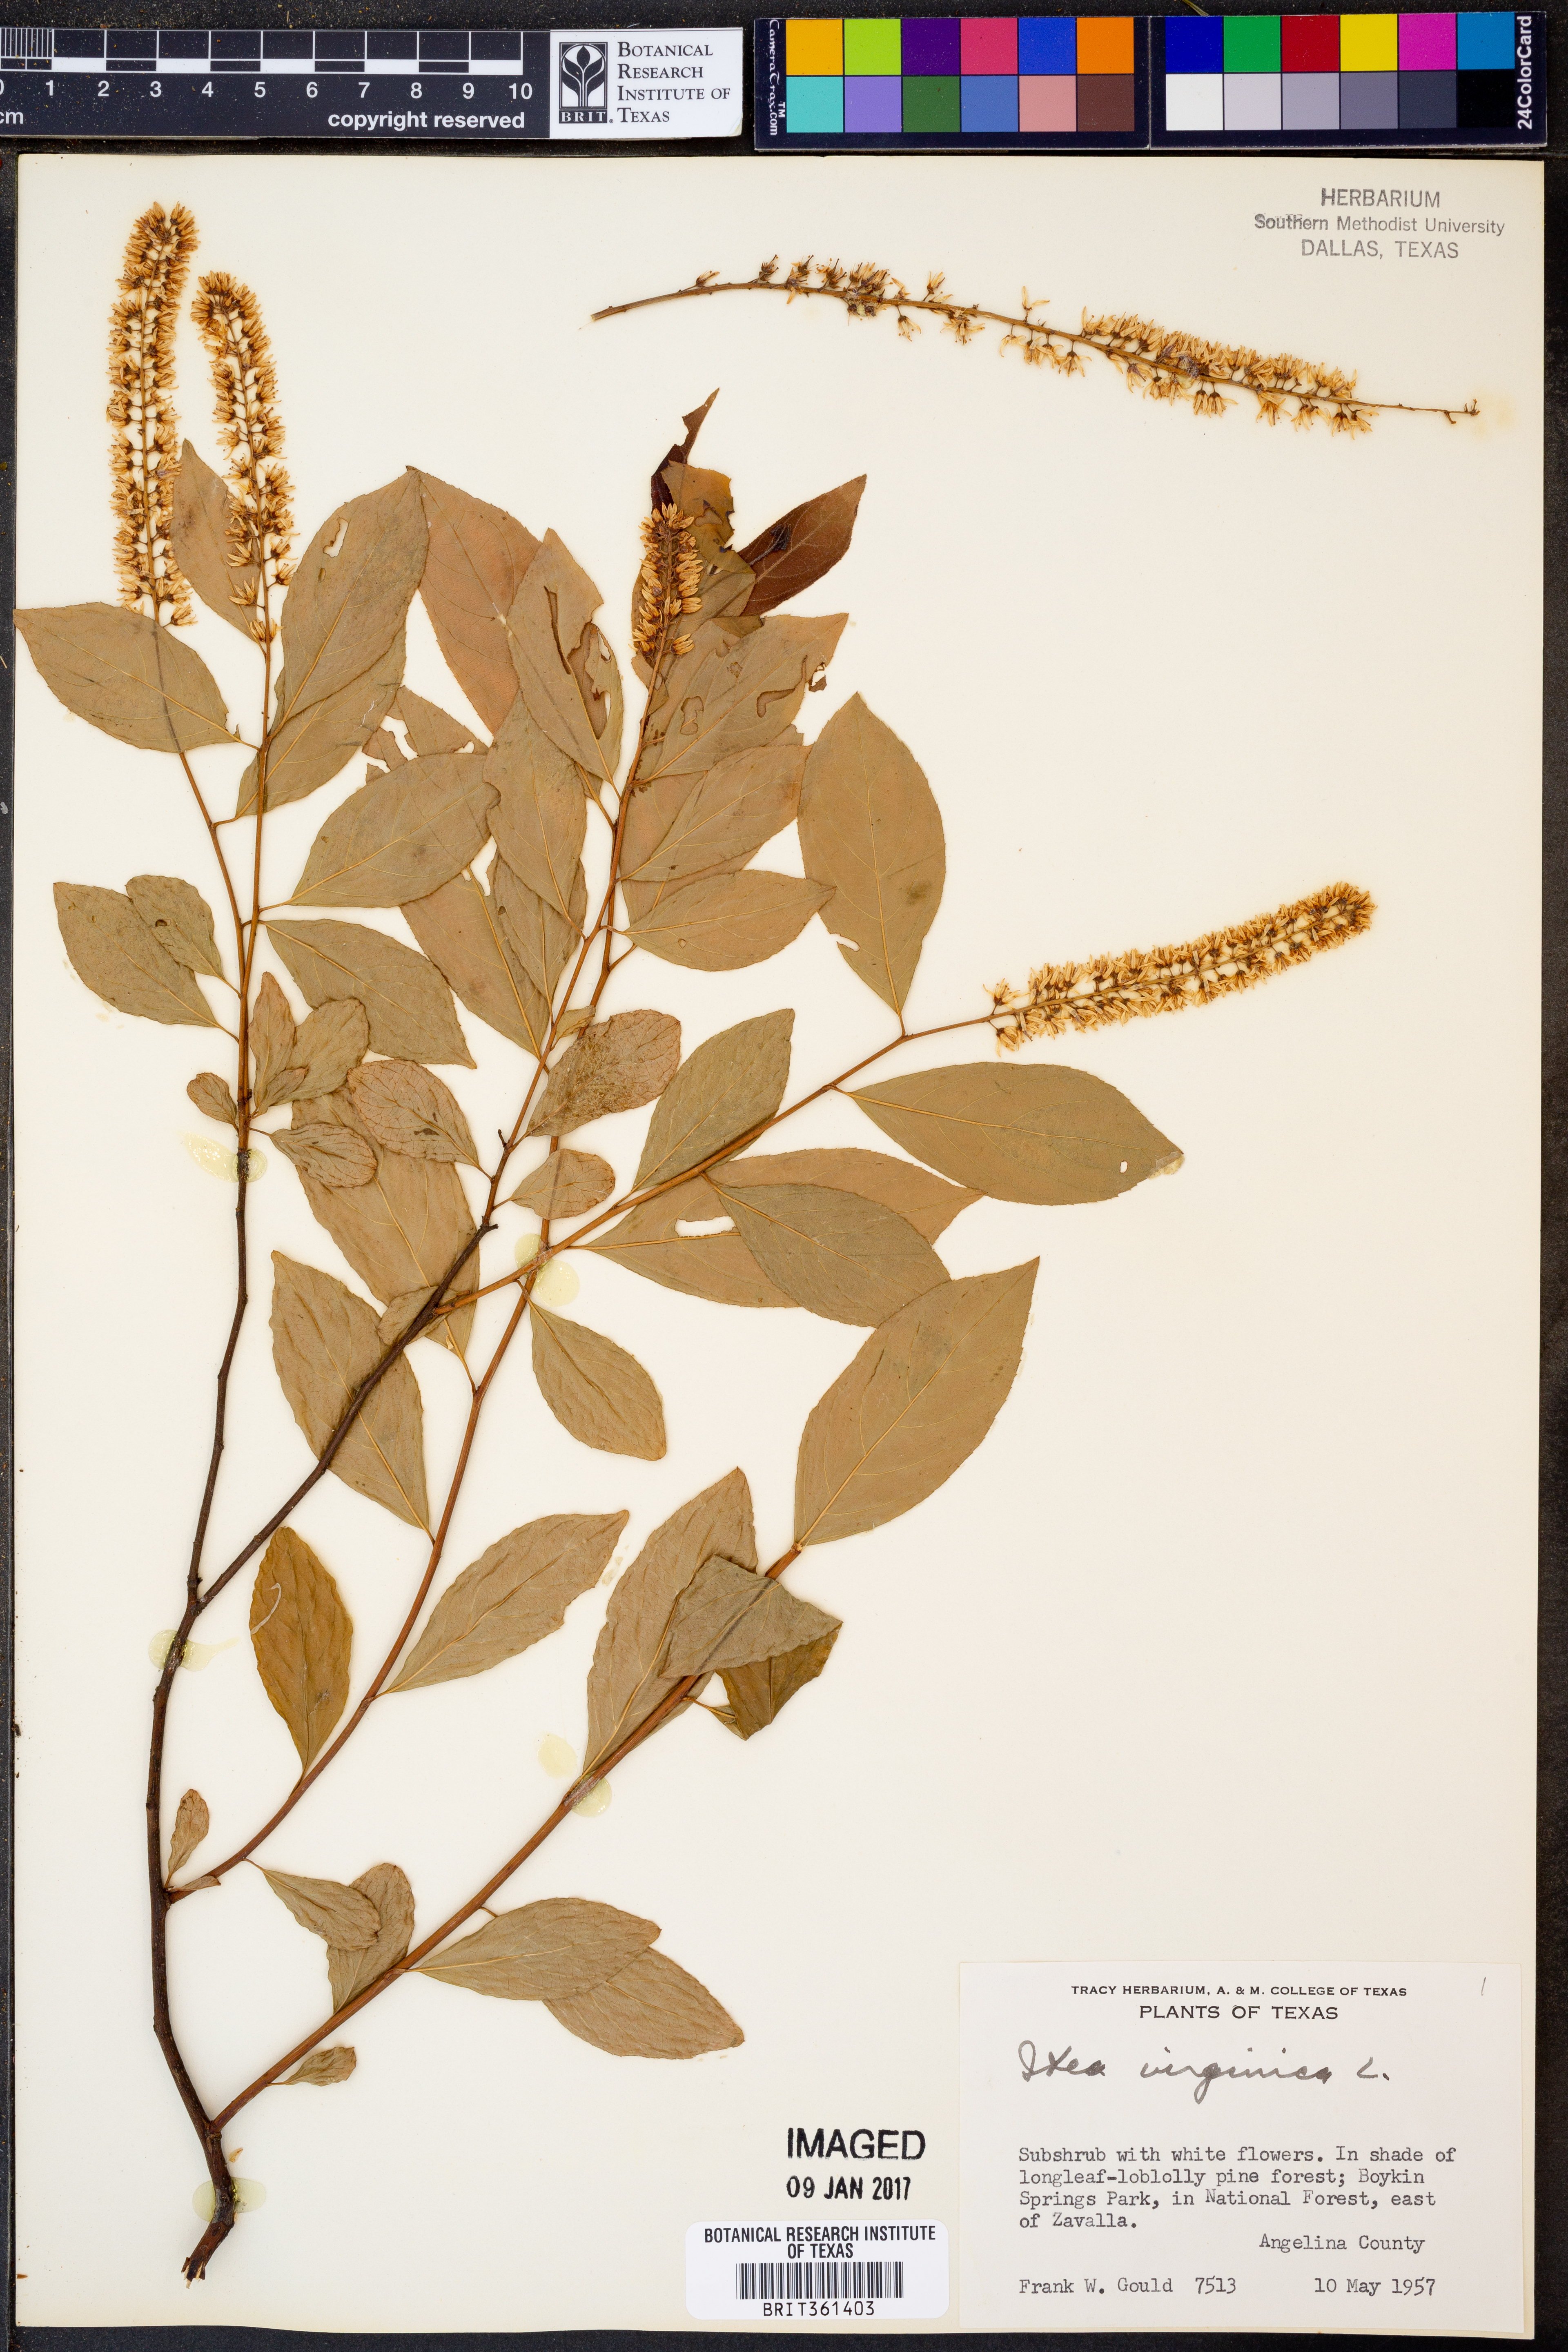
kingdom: Plantae
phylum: Tracheophyta
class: Magnoliopsida
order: Saxifragales
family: Iteaceae
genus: Itea
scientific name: Itea virginica
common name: Sweetspire
